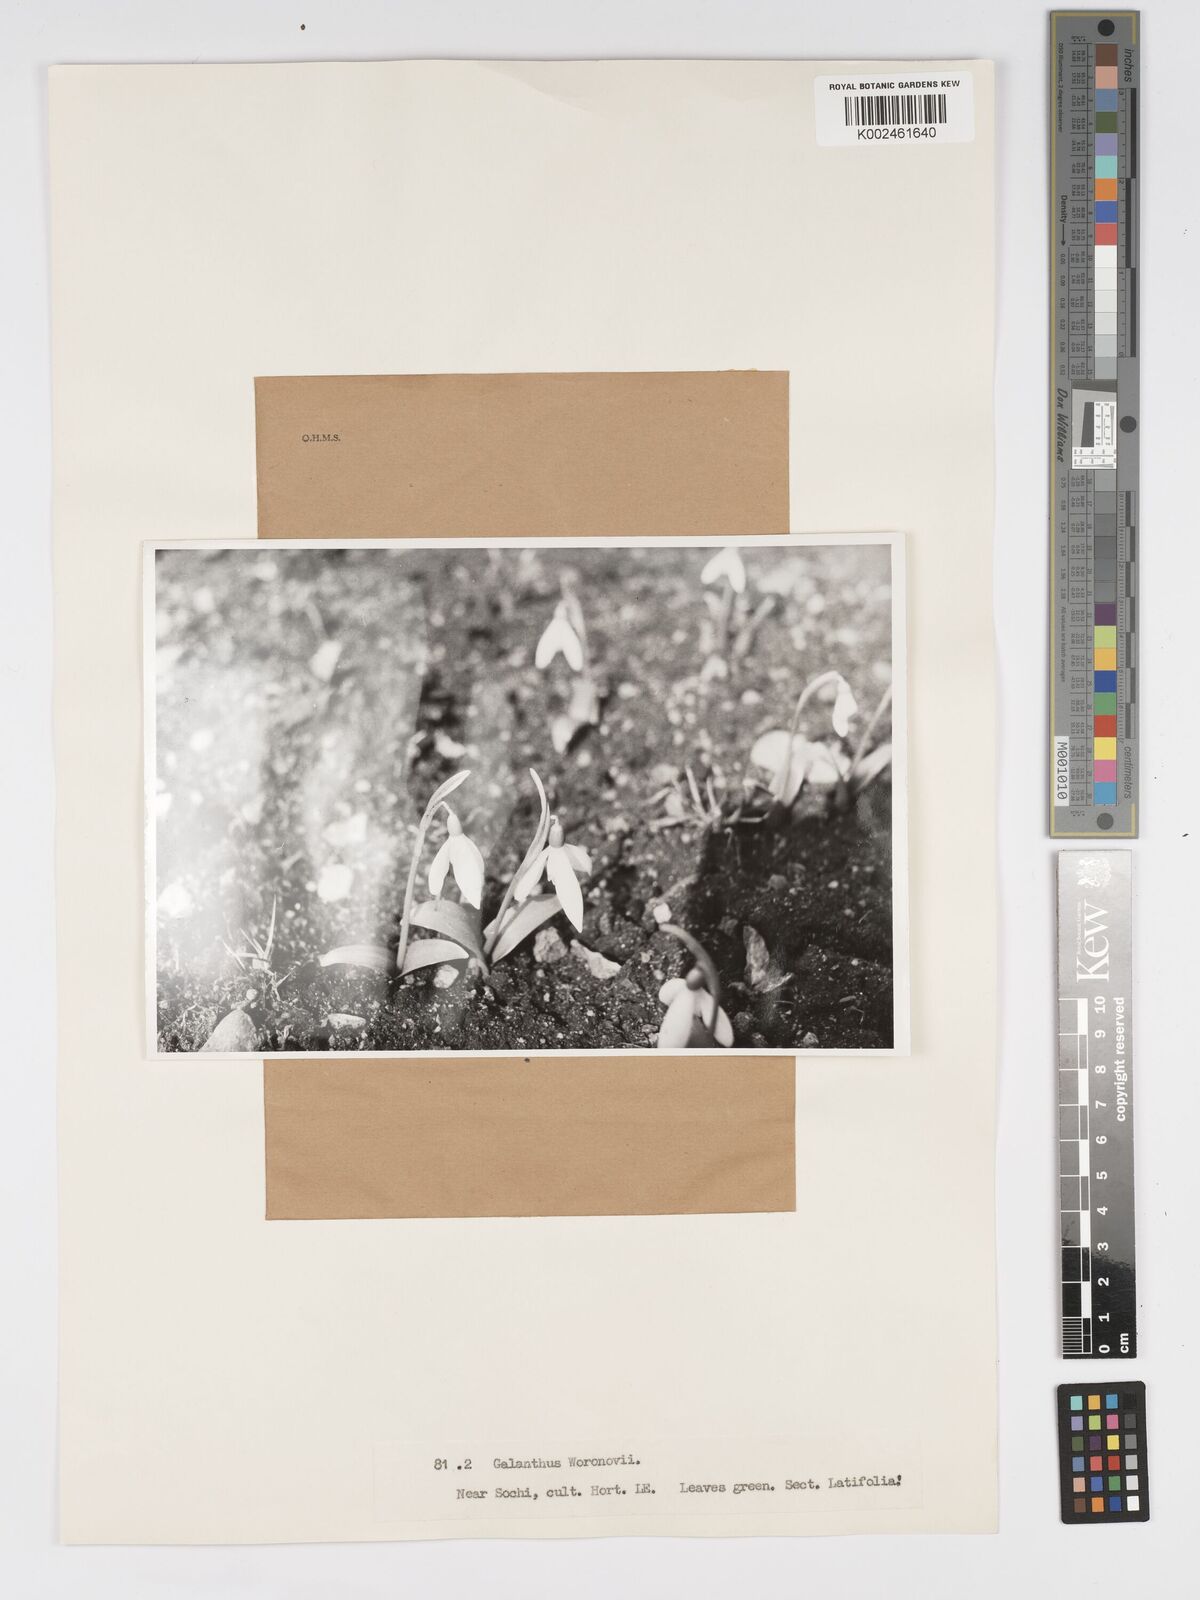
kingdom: Plantae
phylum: Tracheophyta
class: Liliopsida
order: Asparagales
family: Amaryllidaceae
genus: Galanthus
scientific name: Galanthus woronowii
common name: Green snowdrop
